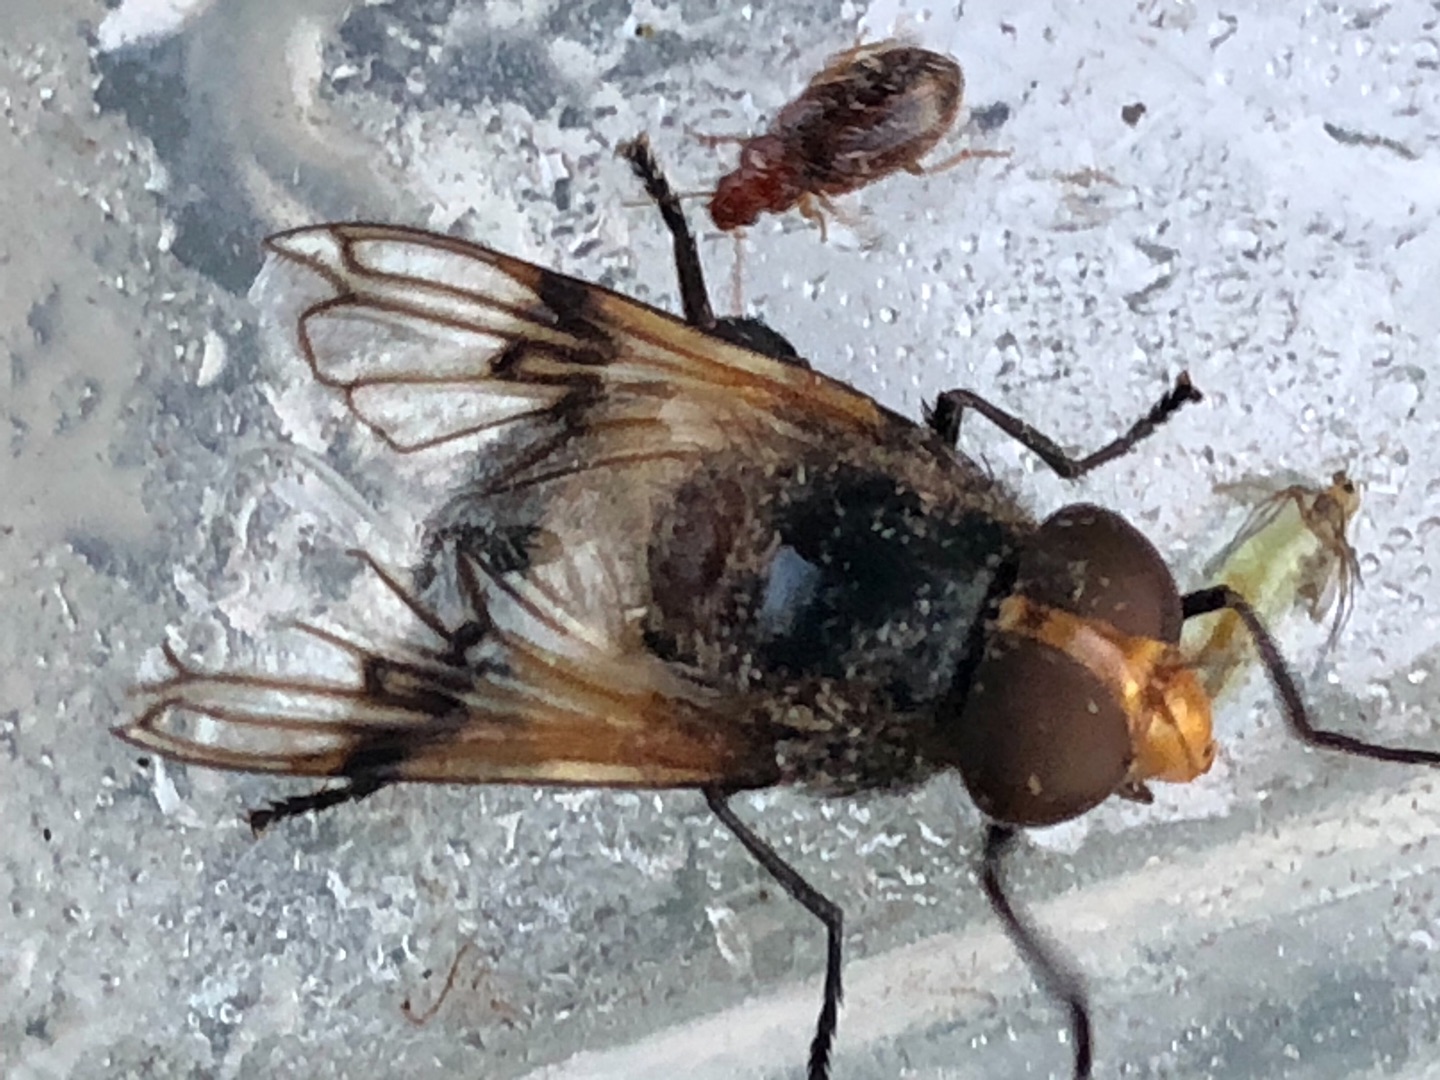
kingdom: Animalia
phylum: Arthropoda
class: Insecta
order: Diptera
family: Syrphidae
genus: Volucella
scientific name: Volucella pellucens
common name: Hvidbåndet humlesvirreflue
